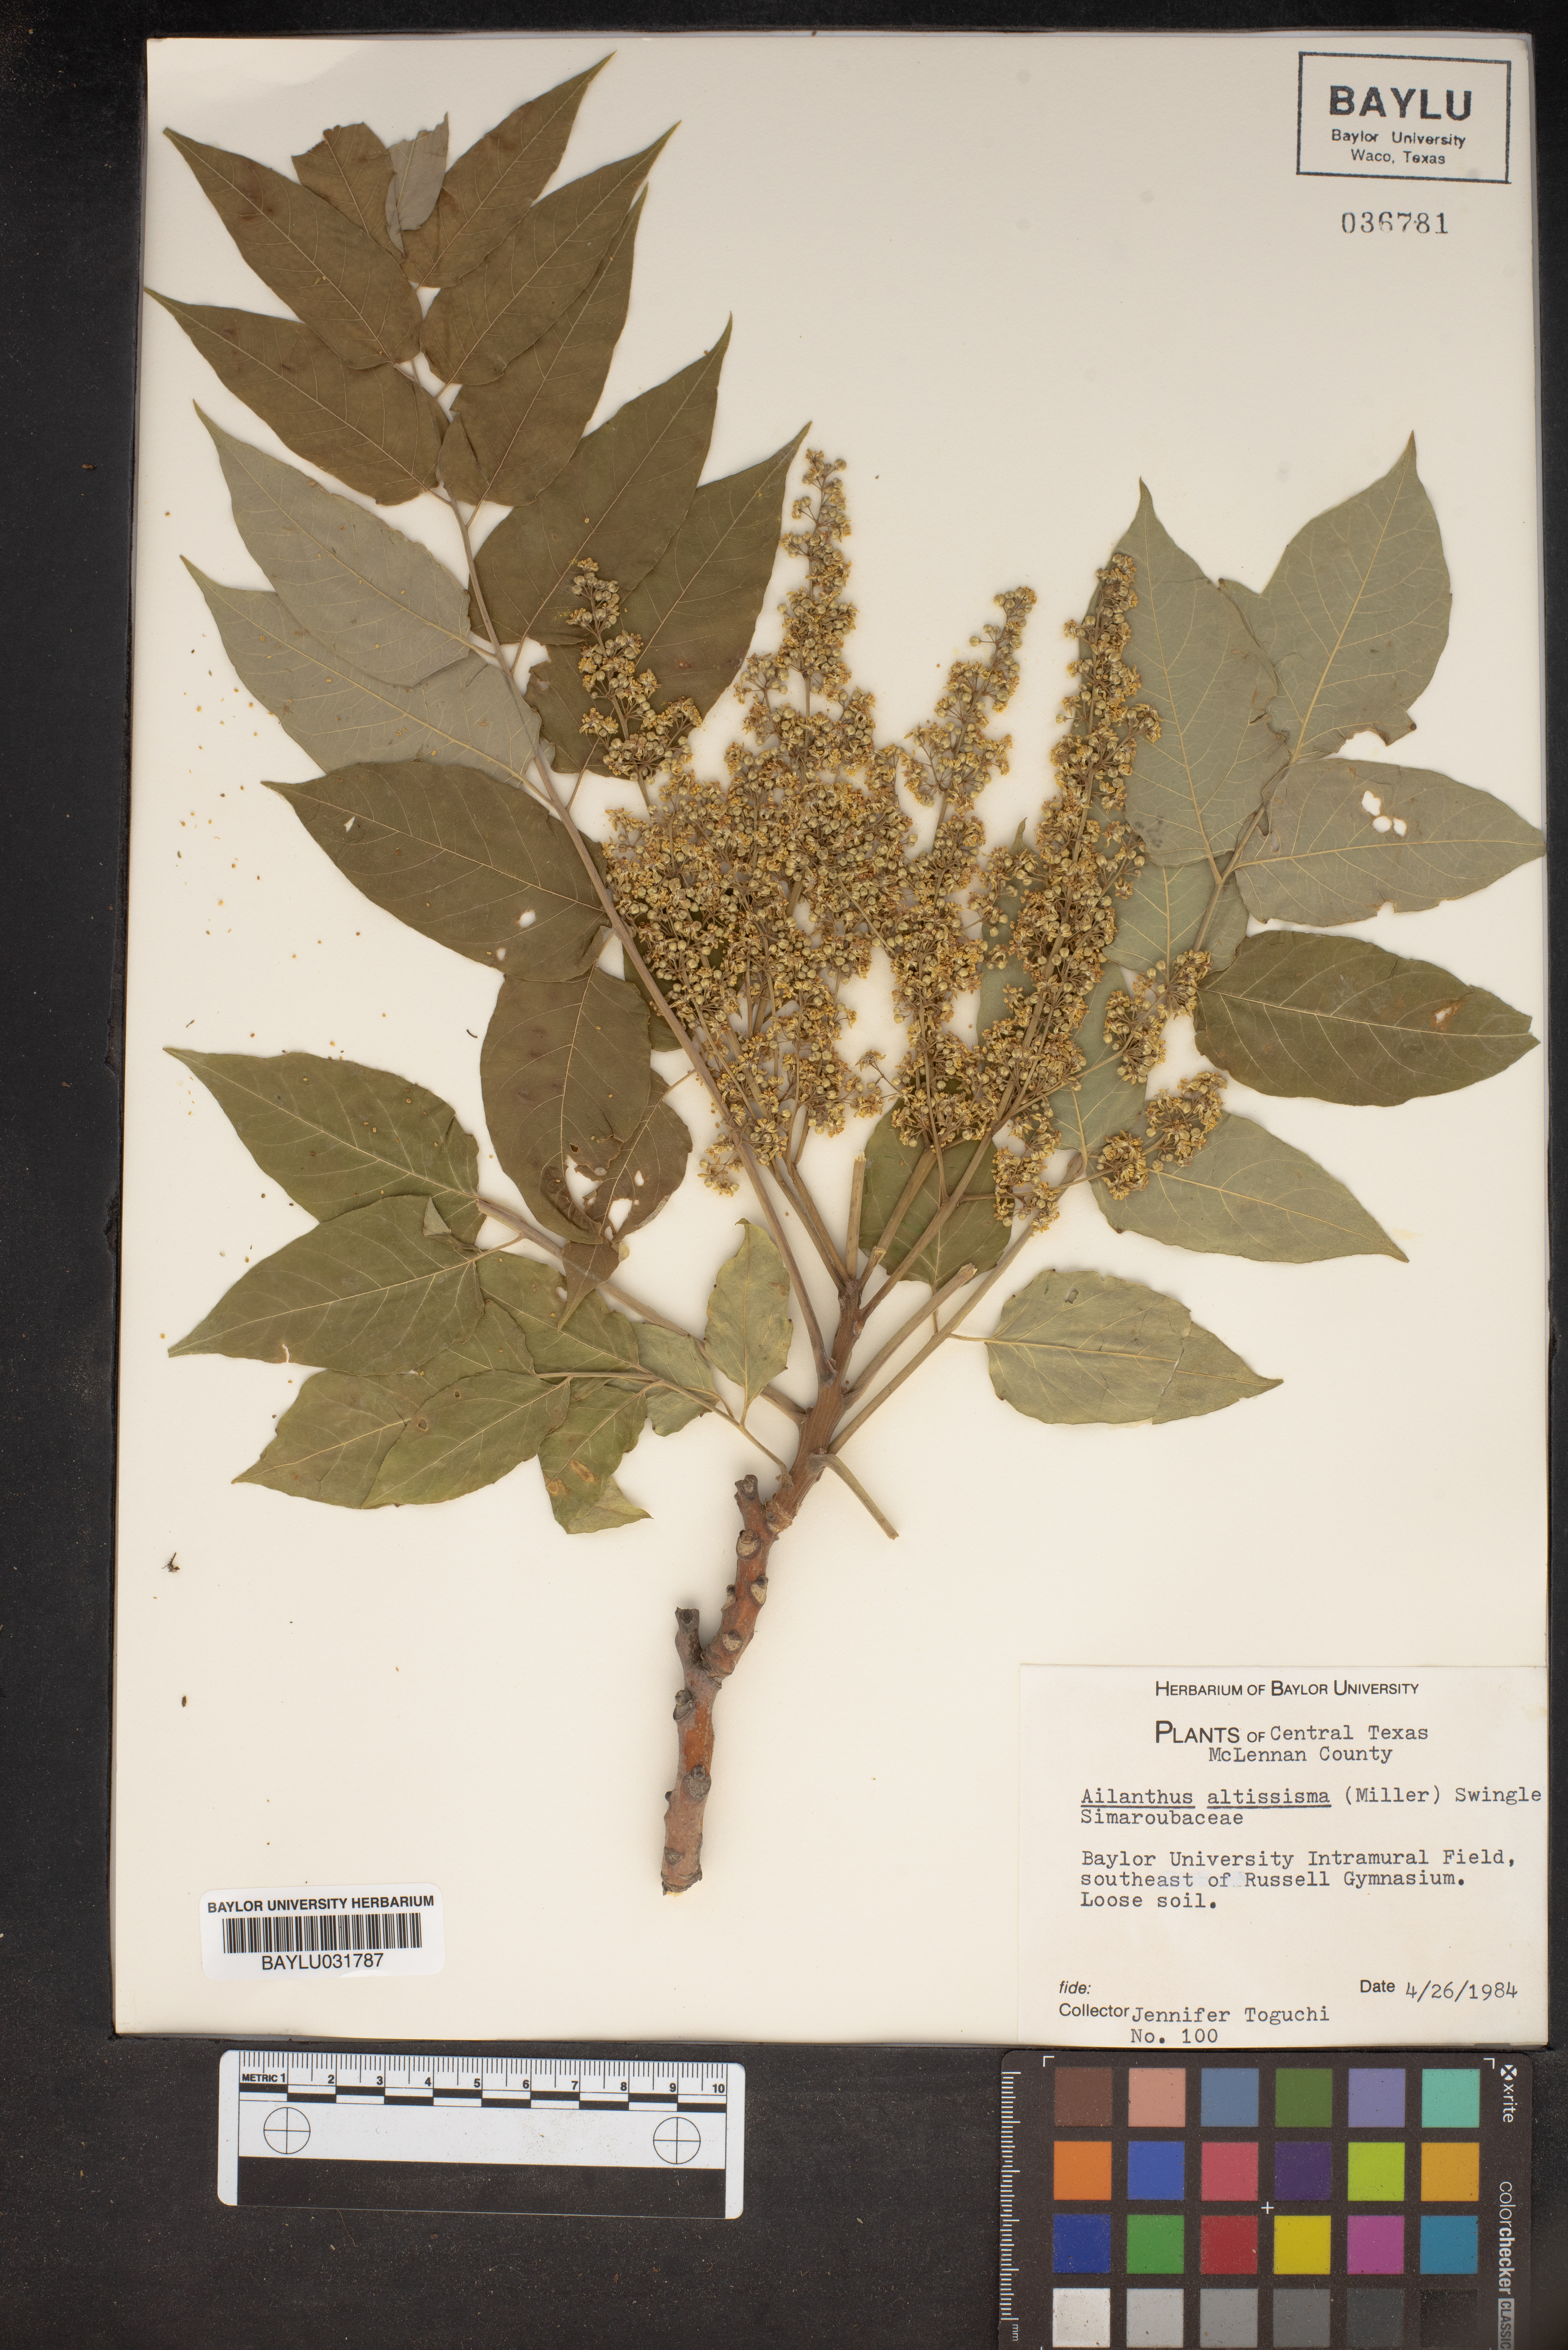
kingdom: Plantae
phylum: Tracheophyta
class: Magnoliopsida
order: Sapindales
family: Simaroubaceae
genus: Ailanthus
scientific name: Ailanthus altissima
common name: Tree-of-heaven
